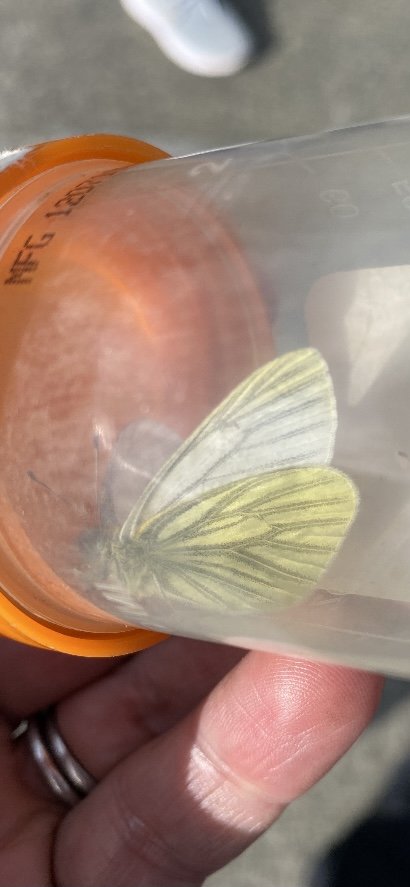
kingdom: Animalia
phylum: Arthropoda
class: Insecta
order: Lepidoptera
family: Pieridae
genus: Pieris
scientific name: Pieris marginalis
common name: Margined White
